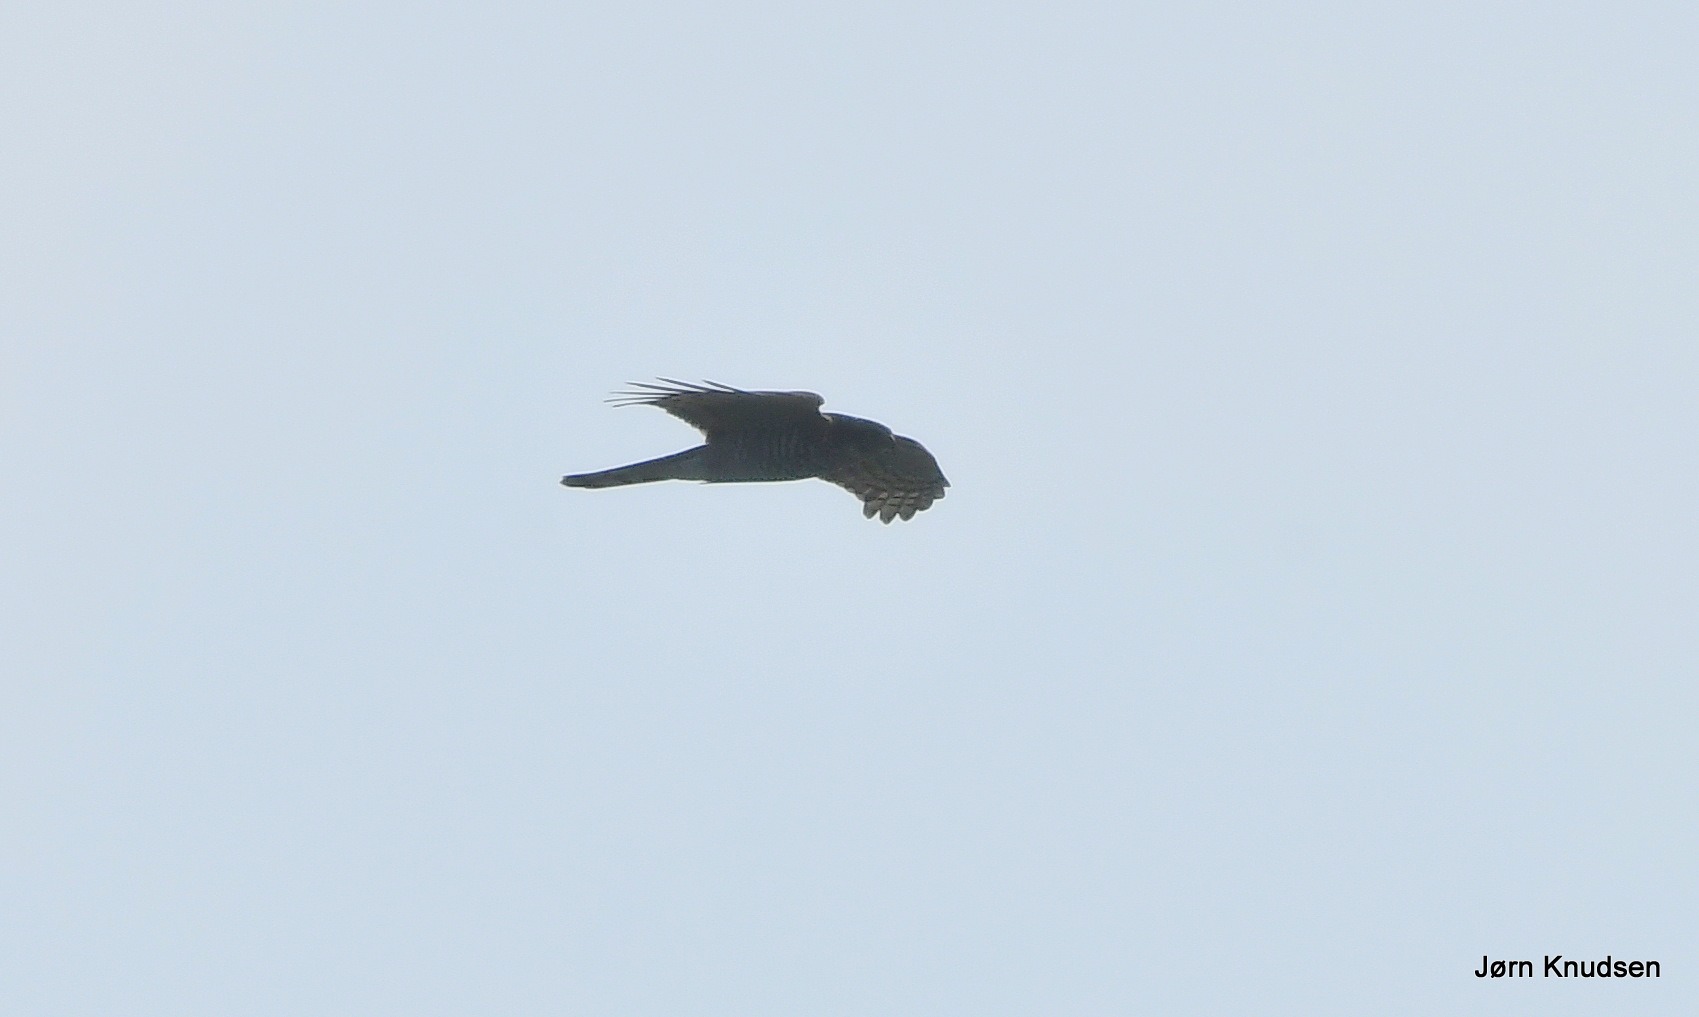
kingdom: Animalia
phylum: Chordata
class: Aves
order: Accipitriformes
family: Accipitridae
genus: Accipiter
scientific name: Accipiter nisus
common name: Spurvehøg
